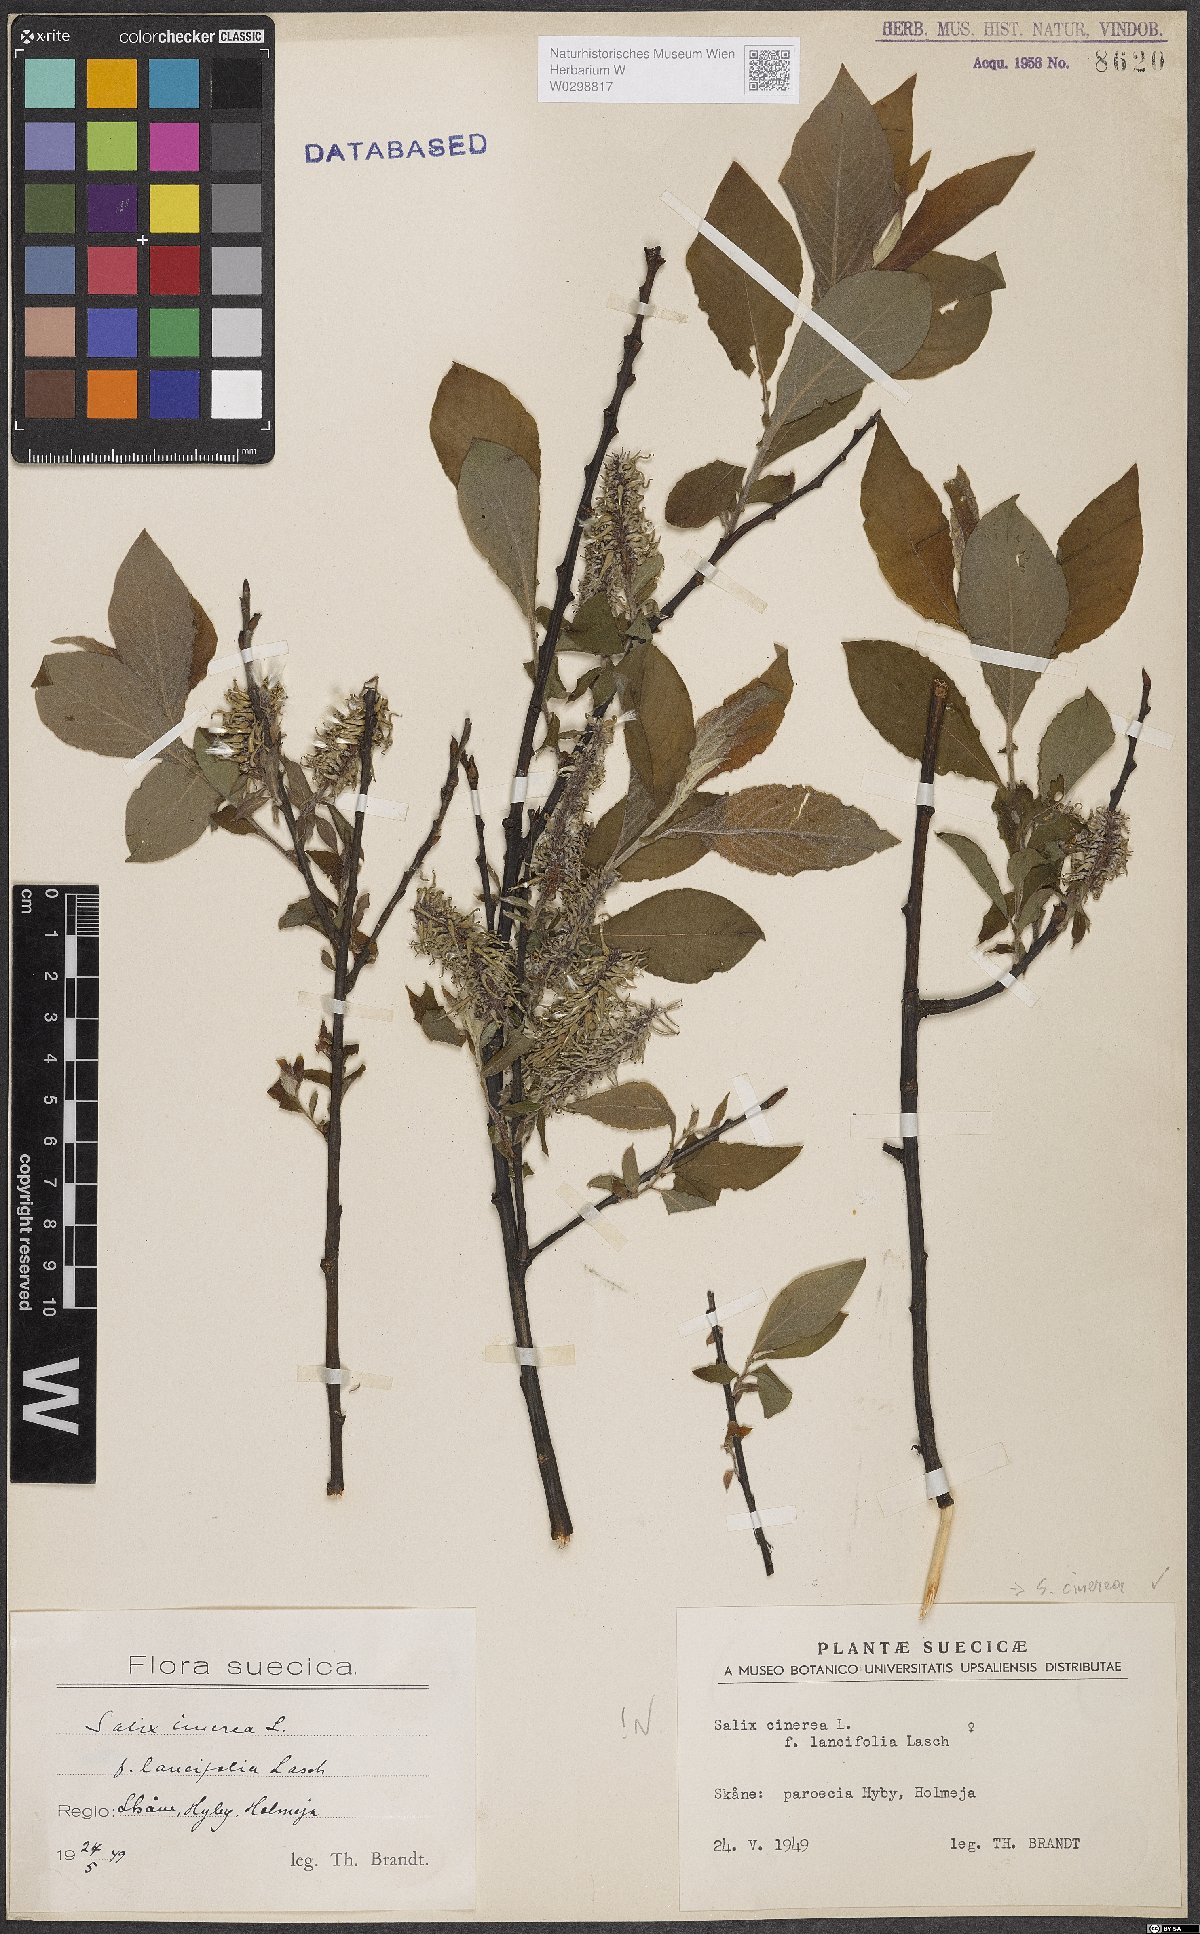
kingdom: Plantae
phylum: Tracheophyta
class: Magnoliopsida
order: Malpighiales
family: Salicaceae
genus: Salix
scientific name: Salix cinerea
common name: Common sallow
